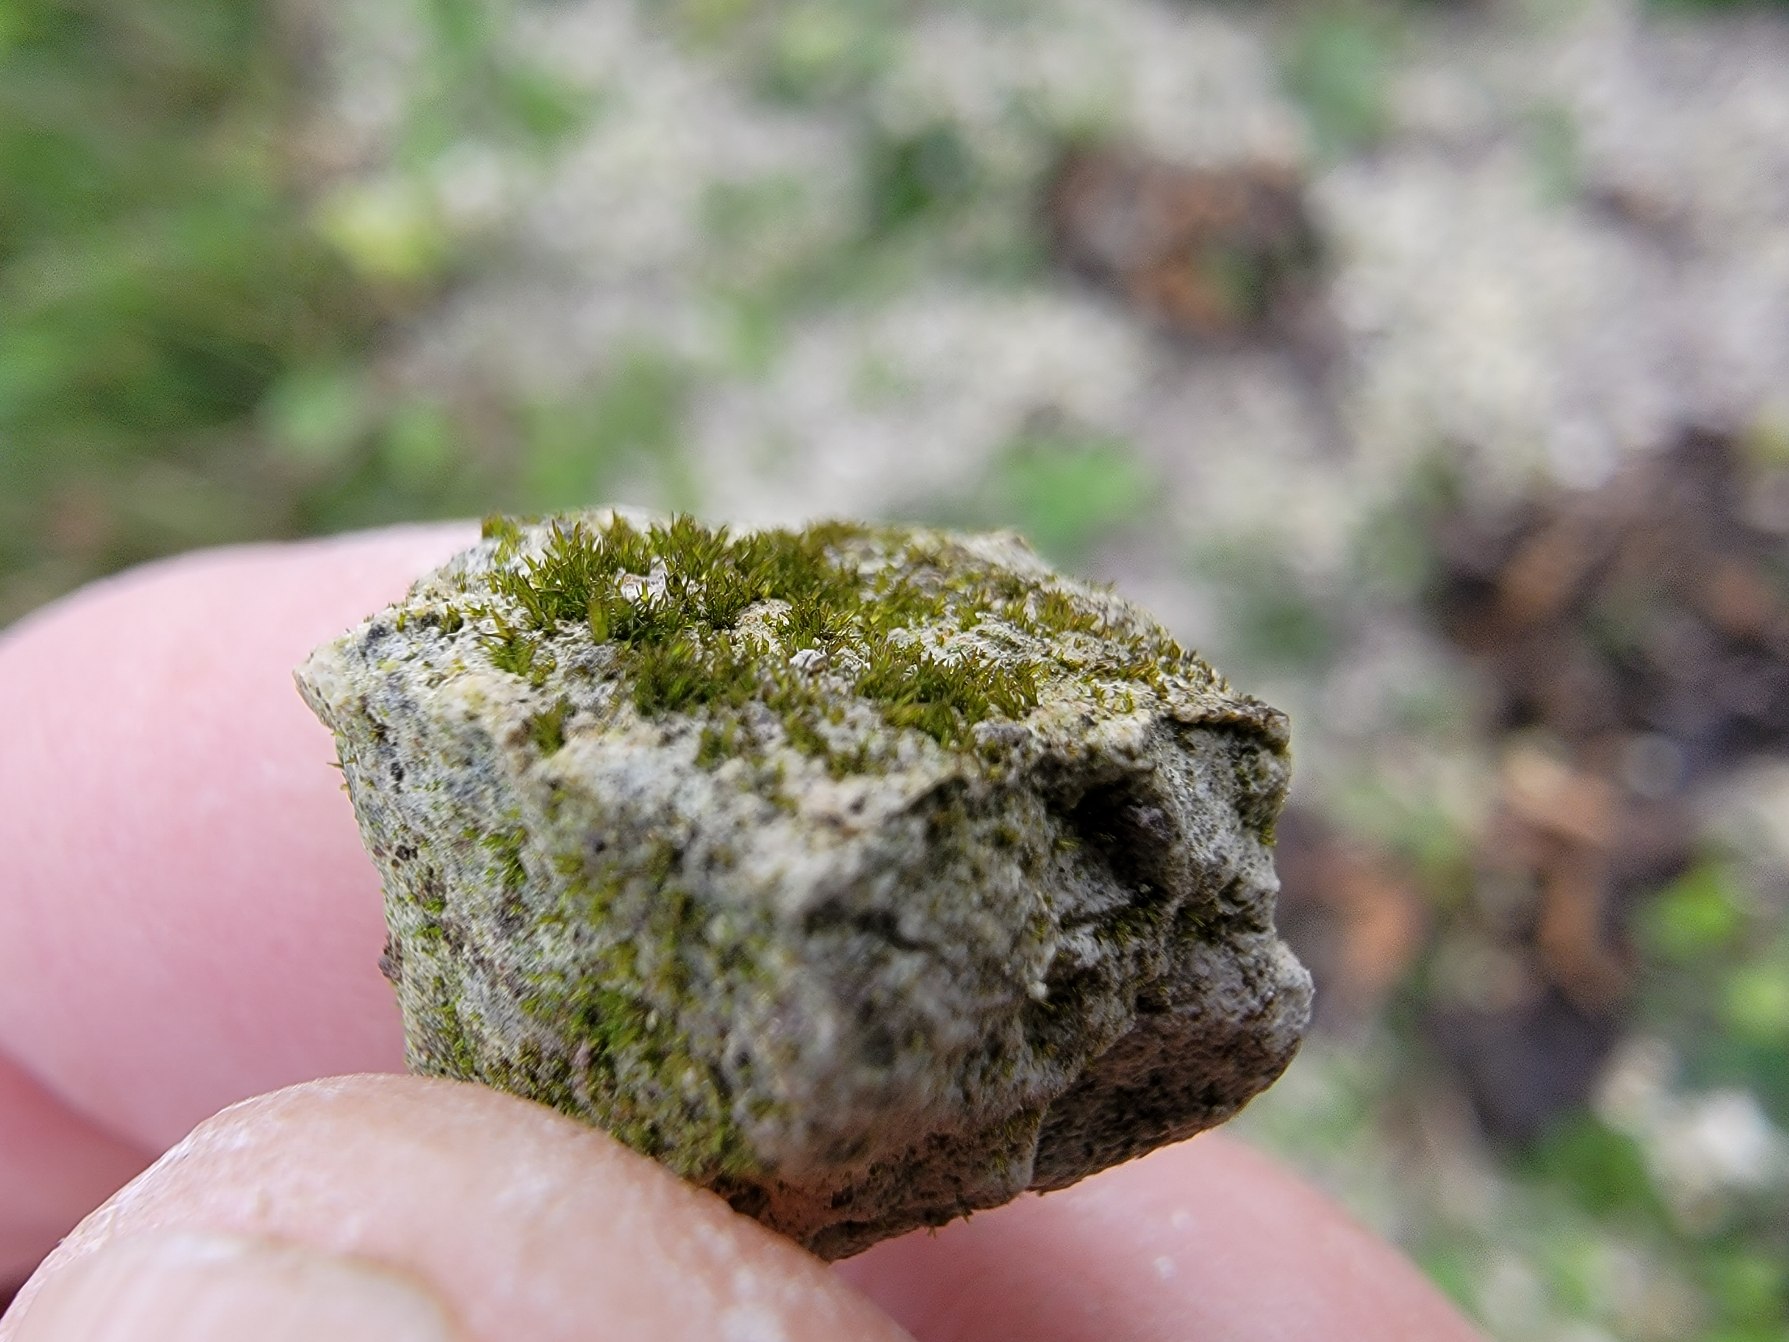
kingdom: Plantae
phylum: Bryophyta
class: Bryopsida
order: Grimmiales
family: Seligeriaceae
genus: Seligeria
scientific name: Seligeria calcarea
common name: Skygge-kalkmos
